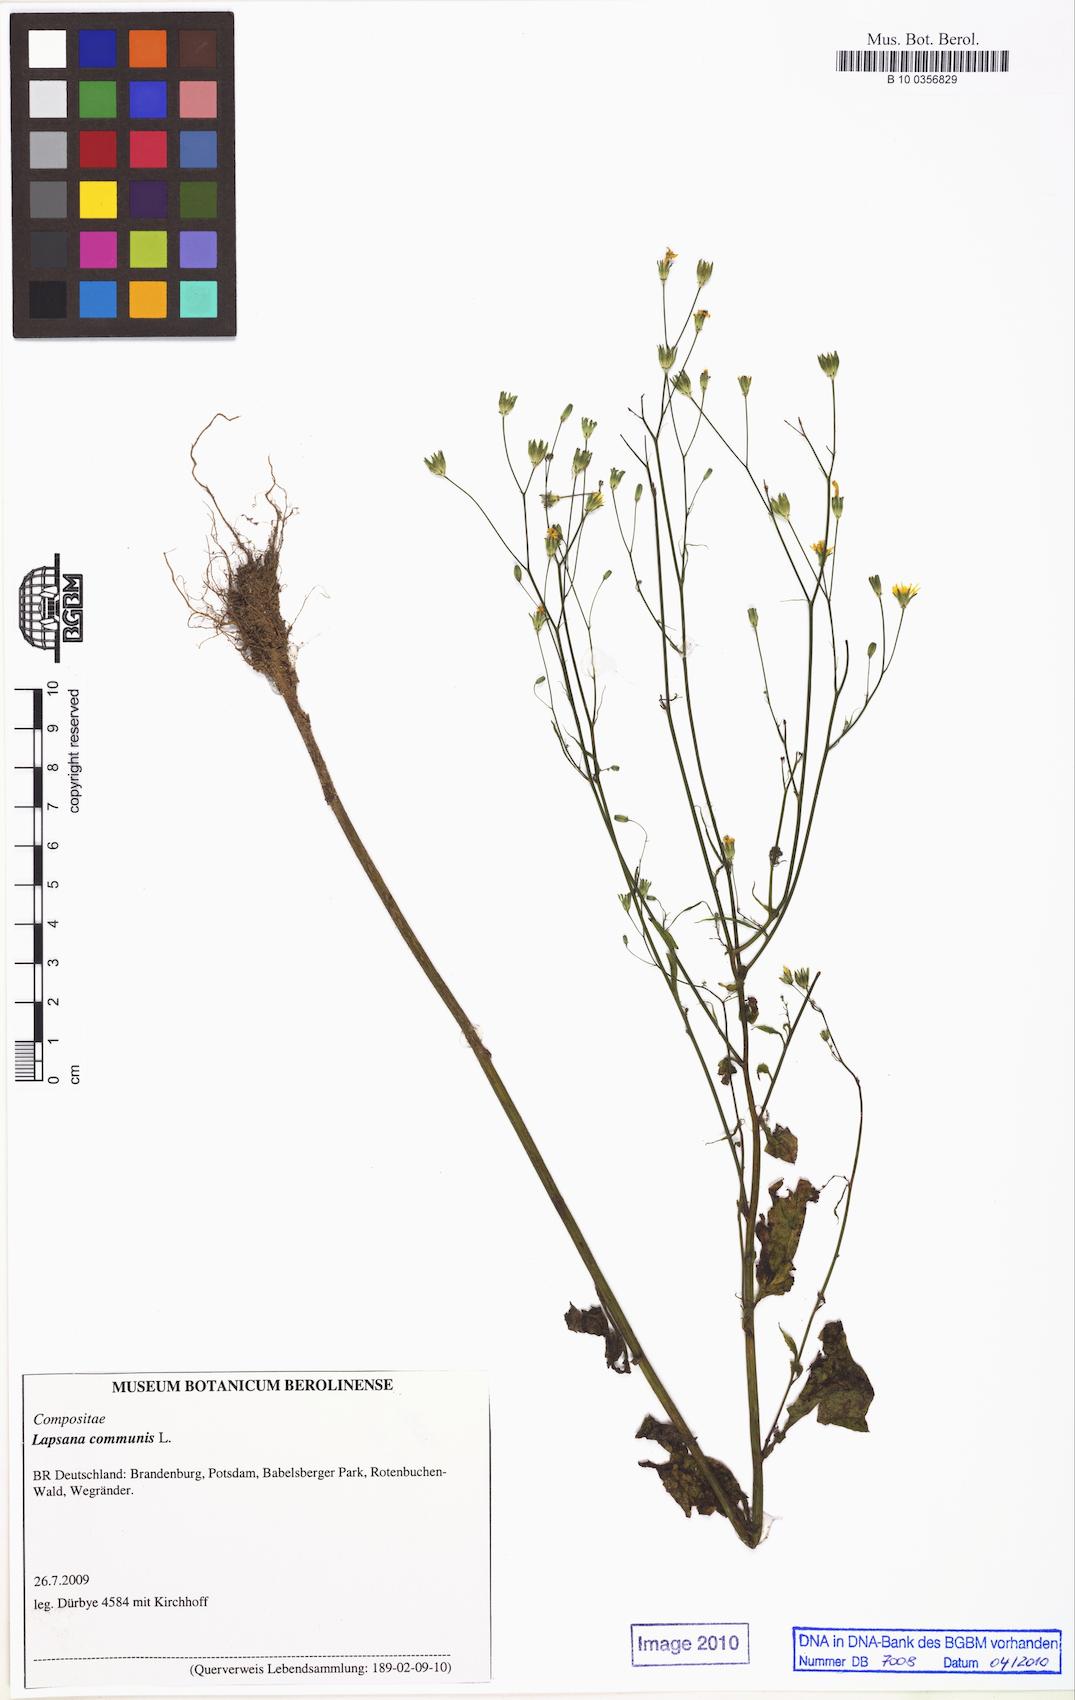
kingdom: Plantae
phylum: Tracheophyta
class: Magnoliopsida
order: Asterales
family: Asteraceae
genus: Lapsana
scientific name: Lapsana communis
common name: Nipplewort
